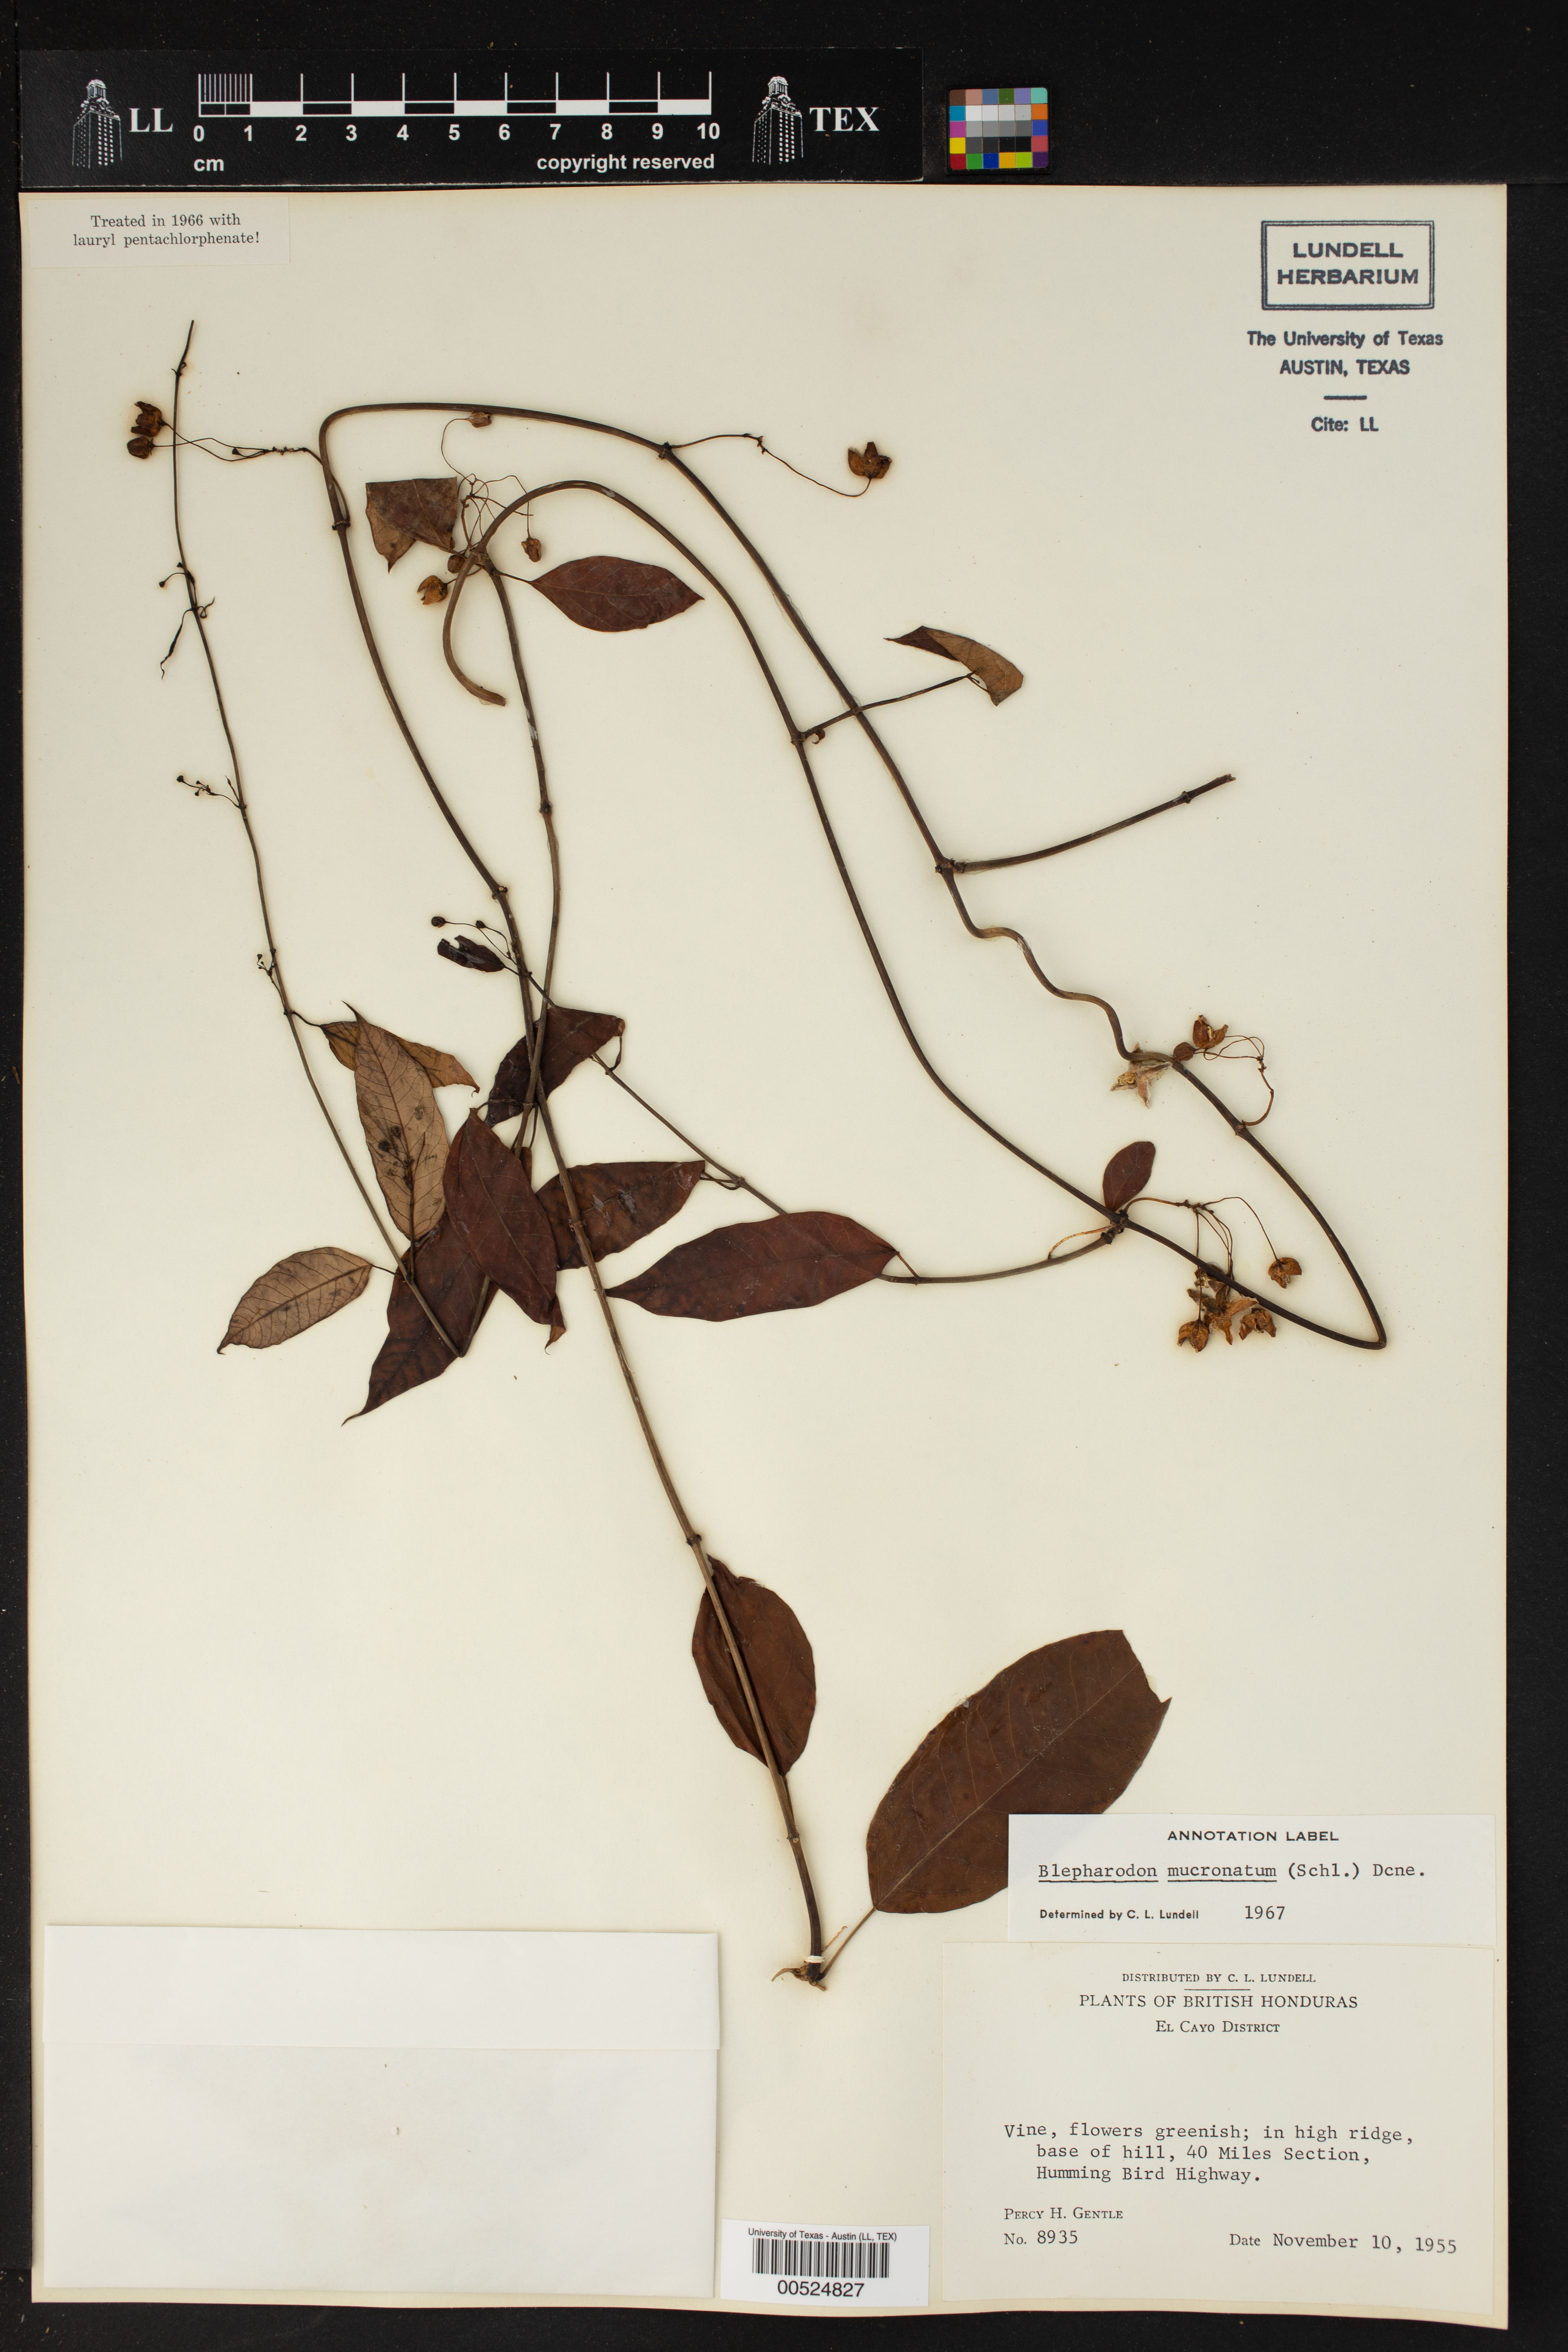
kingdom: Plantae
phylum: Tracheophyta
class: Magnoliopsida
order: Gentianales
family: Apocynaceae
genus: Vailia
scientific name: Vailia anomala
